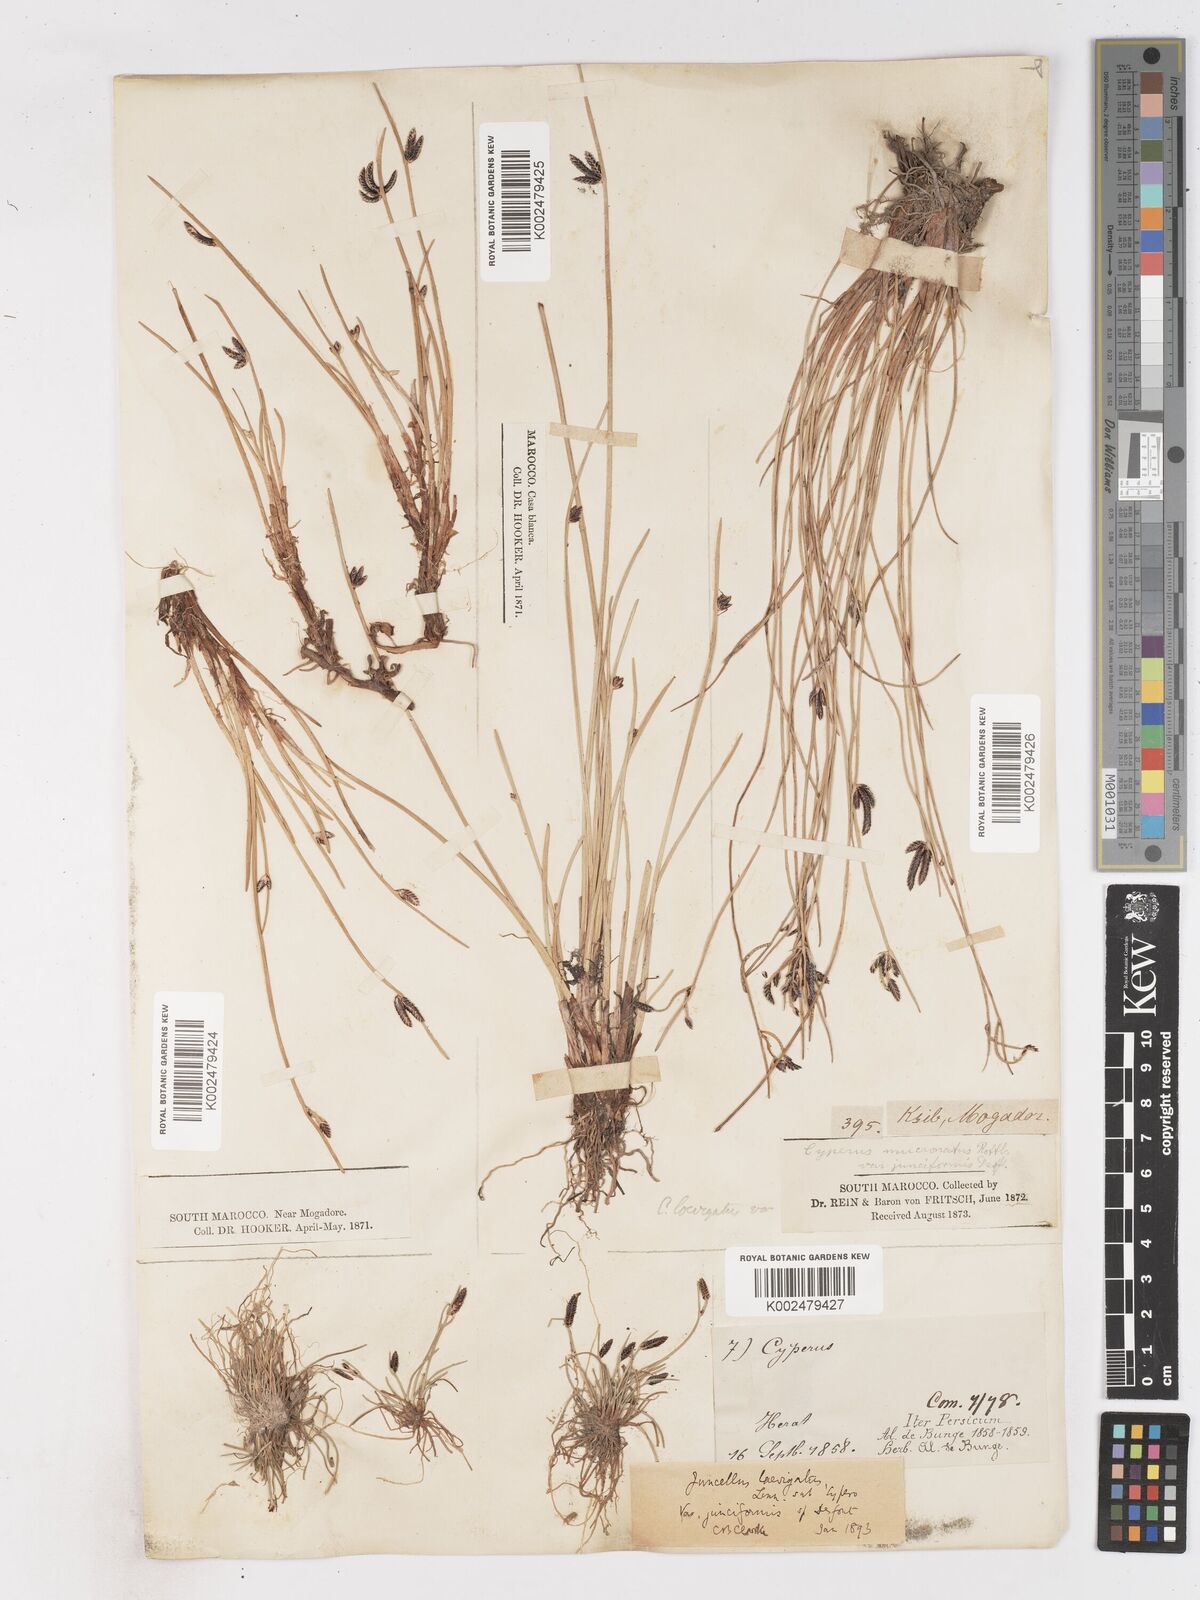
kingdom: Plantae
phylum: Tracheophyta
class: Liliopsida
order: Poales
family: Cyperaceae
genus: Cyperus
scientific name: Cyperus laevigatus
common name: Smooth flat sedge
